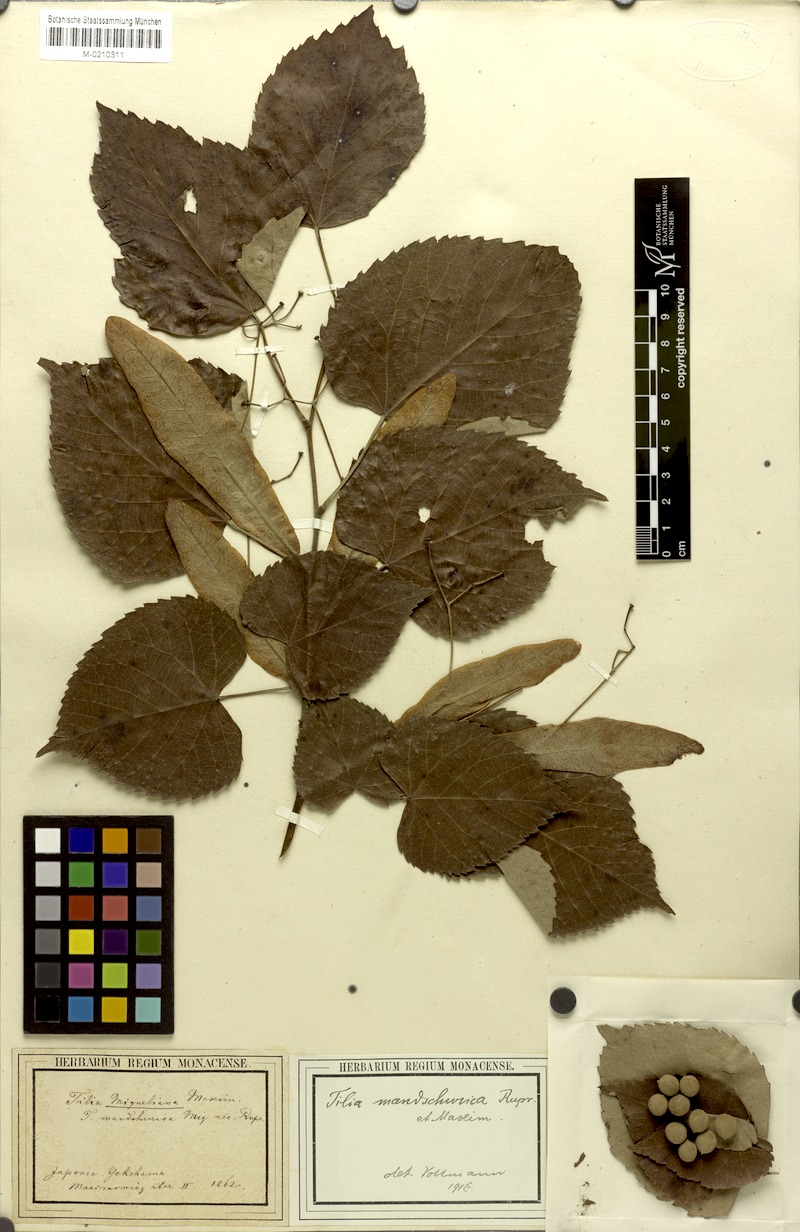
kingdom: Plantae
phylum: Tracheophyta
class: Magnoliopsida
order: Malvales
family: Malvaceae
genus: Tilia
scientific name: Tilia miqueliana
